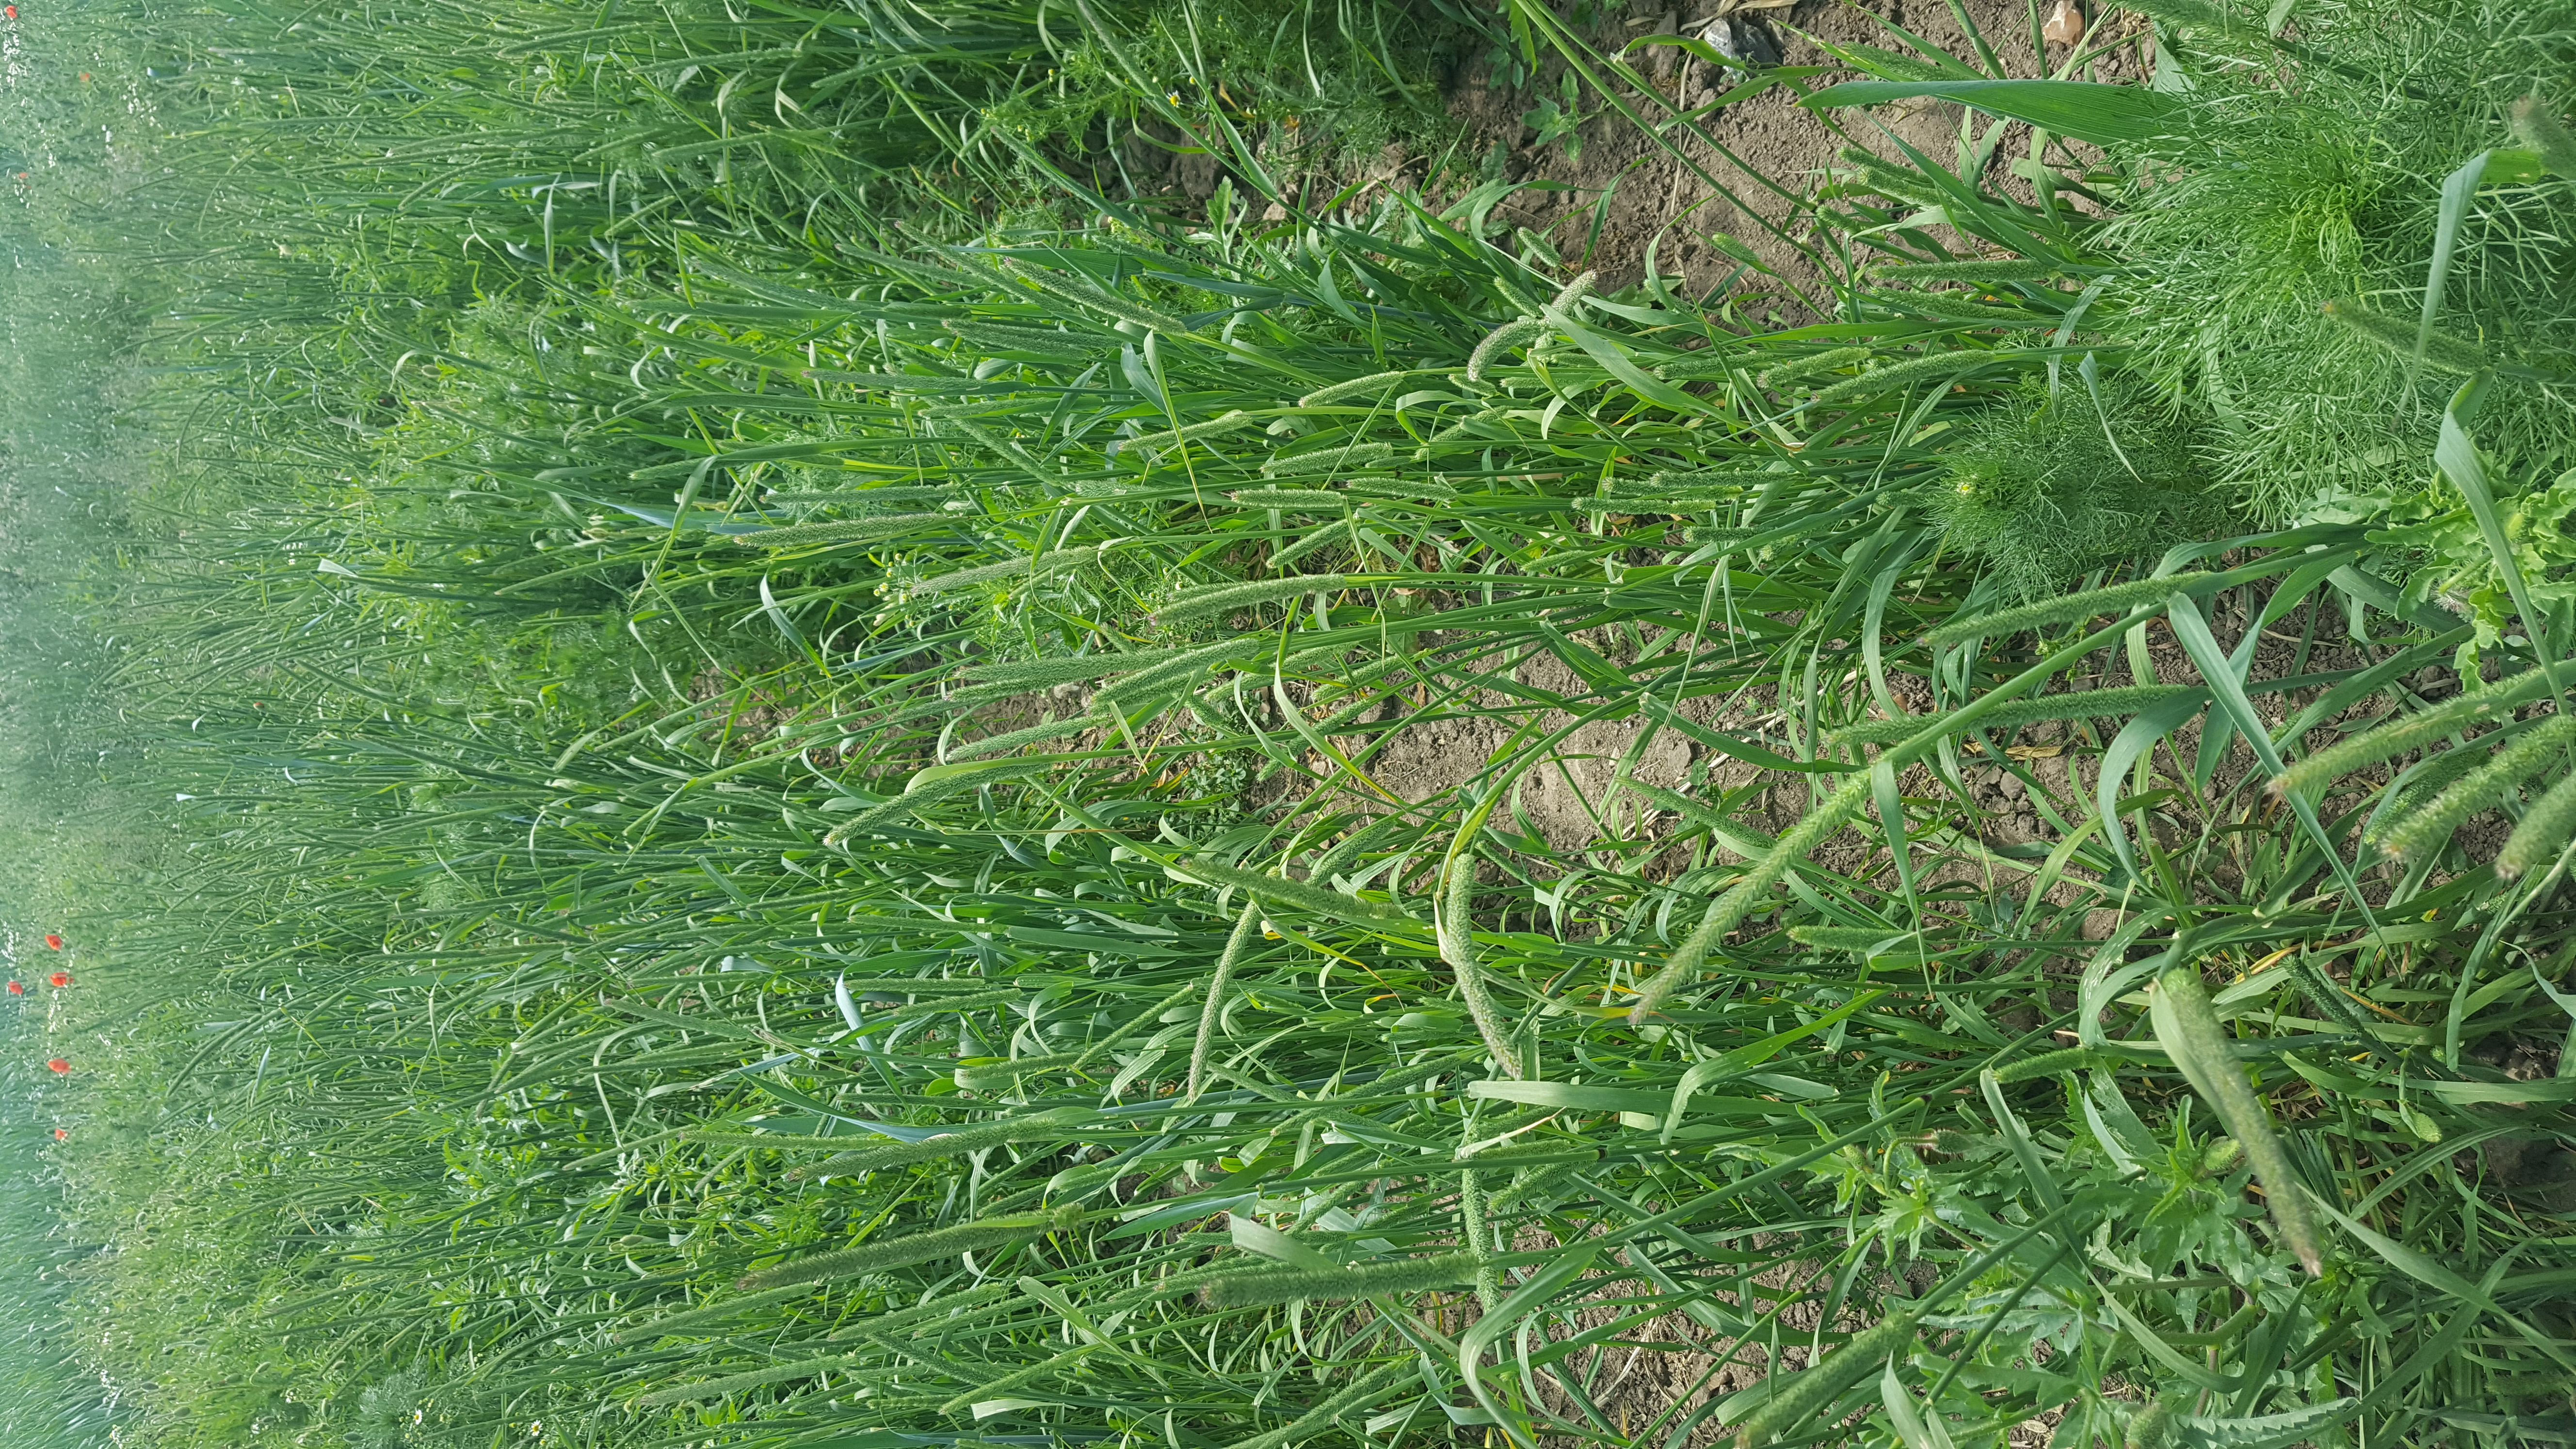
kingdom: Plantae
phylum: Tracheophyta
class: Liliopsida
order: Poales
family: Poaceae
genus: Phleum
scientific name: Phleum pratense
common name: Timothy grass
